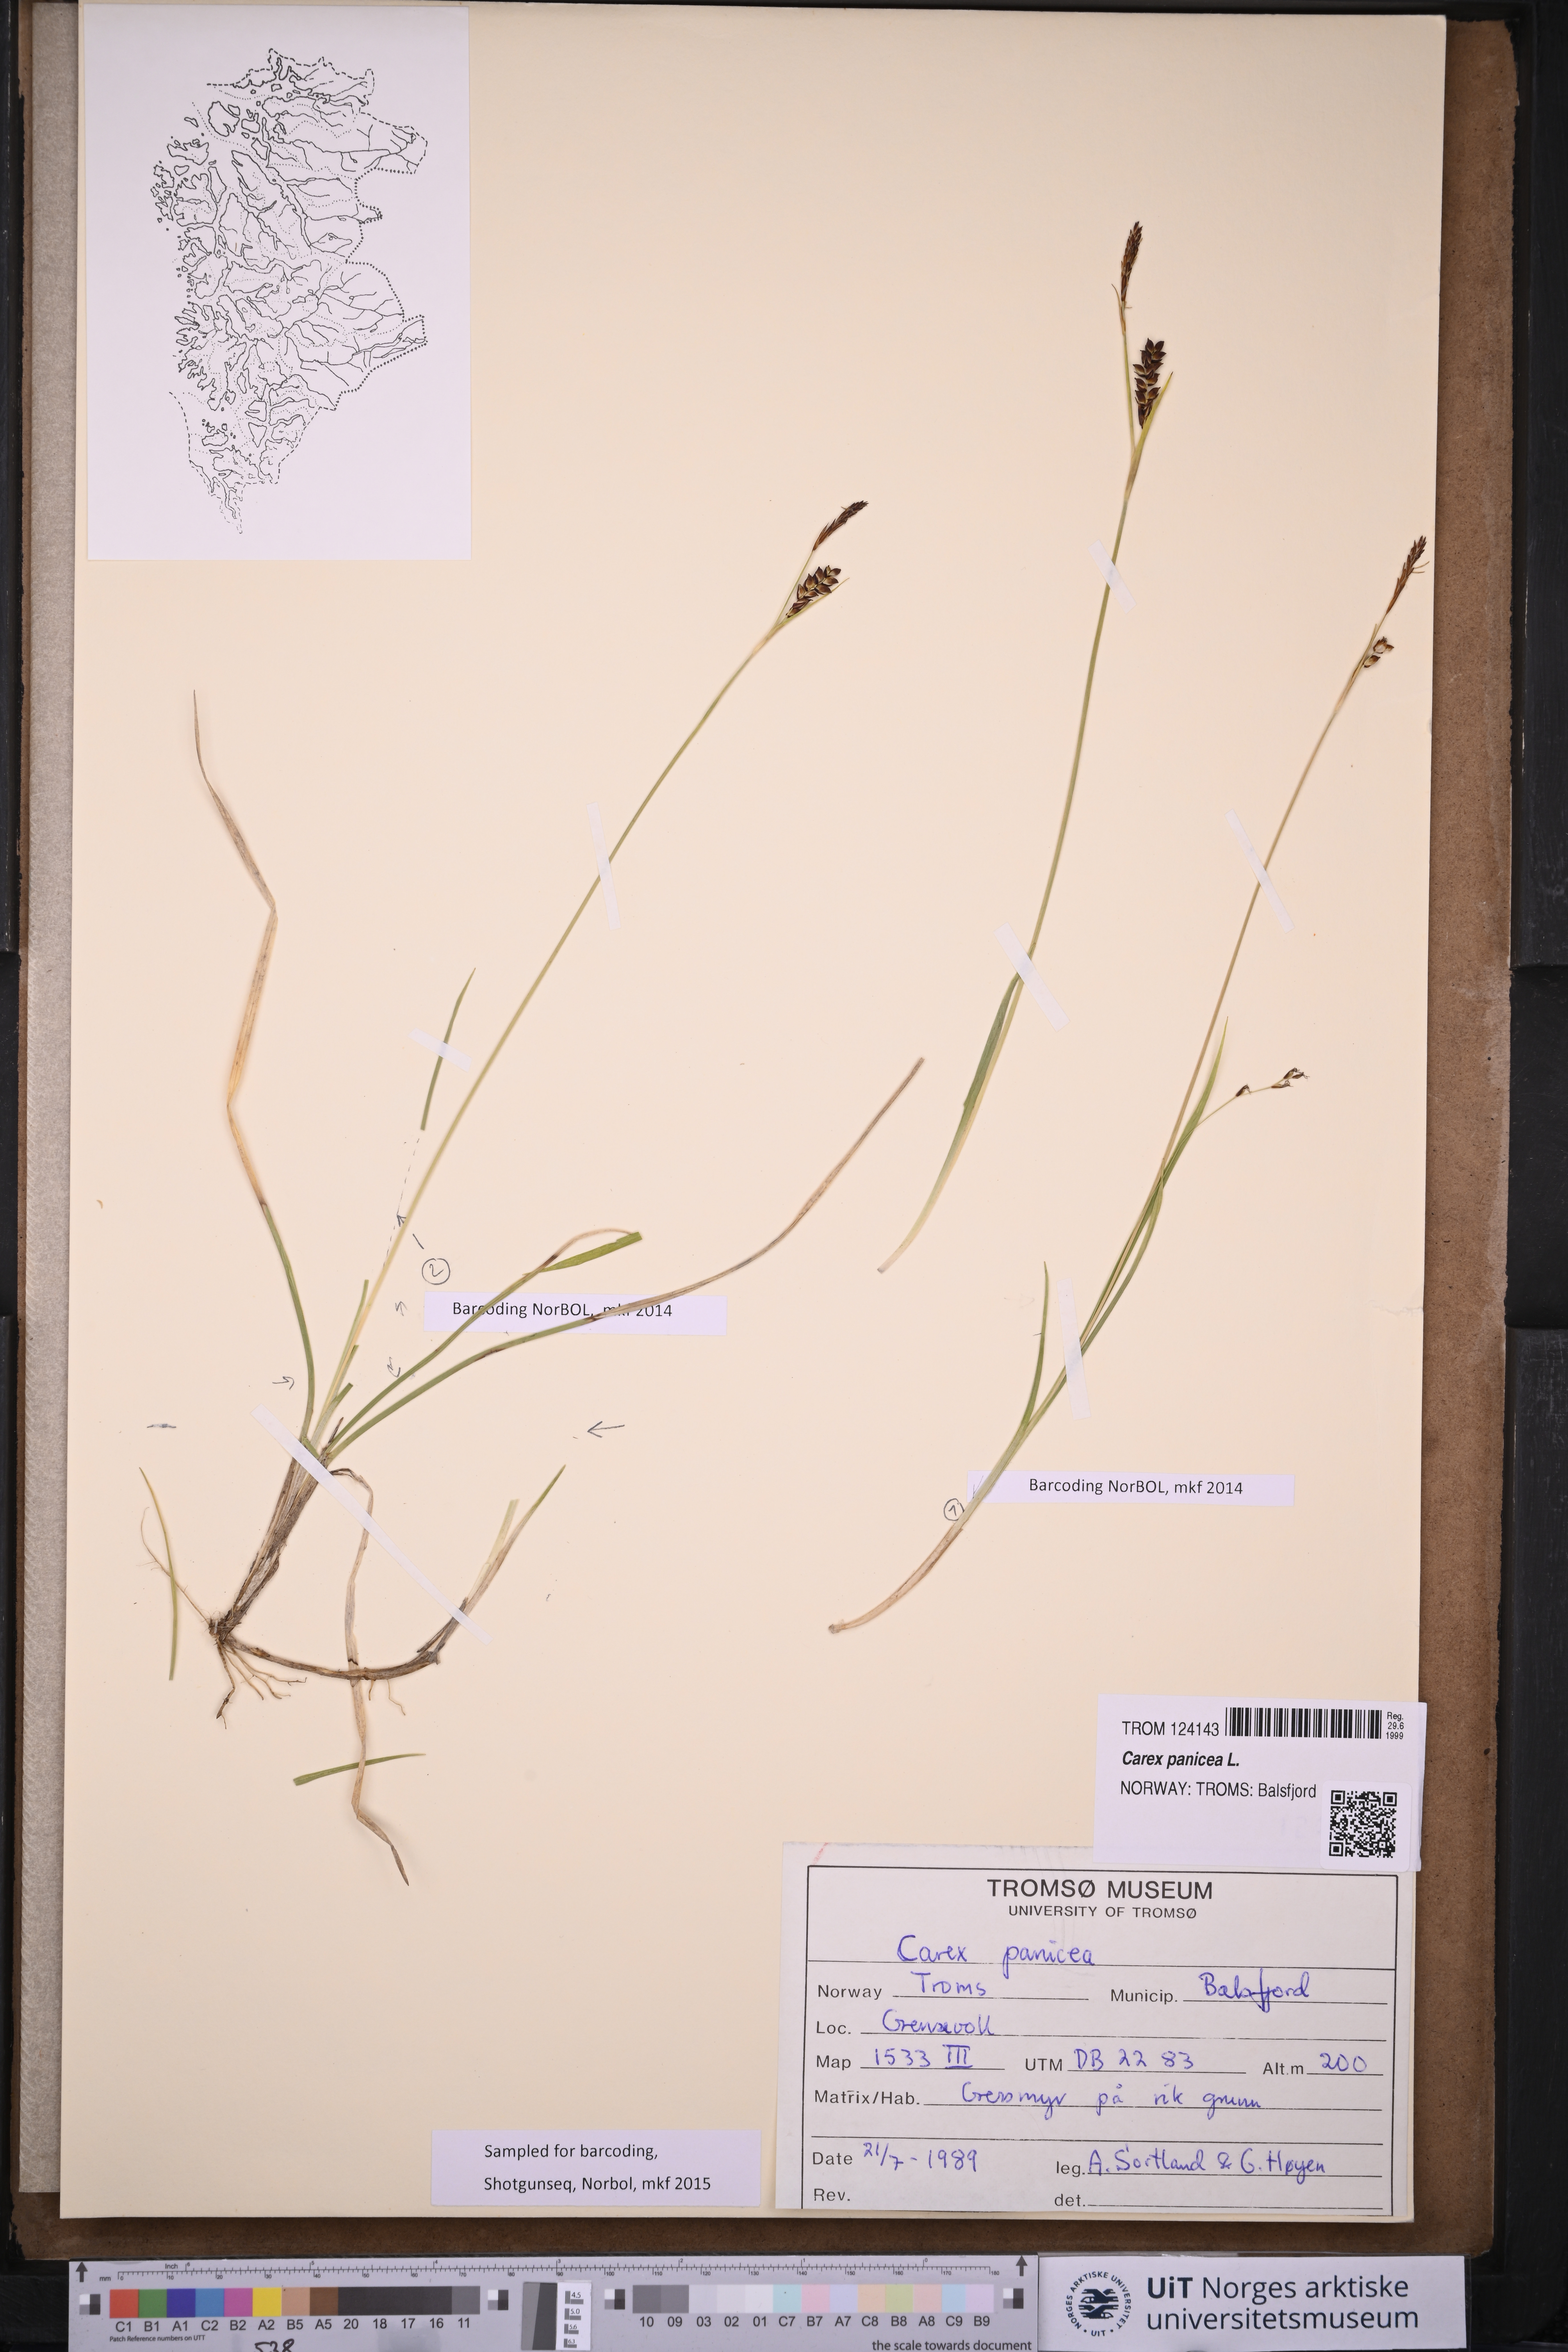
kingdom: Plantae
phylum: Tracheophyta
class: Liliopsida
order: Poales
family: Cyperaceae
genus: Carex
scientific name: Carex panicea
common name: Carnation sedge
